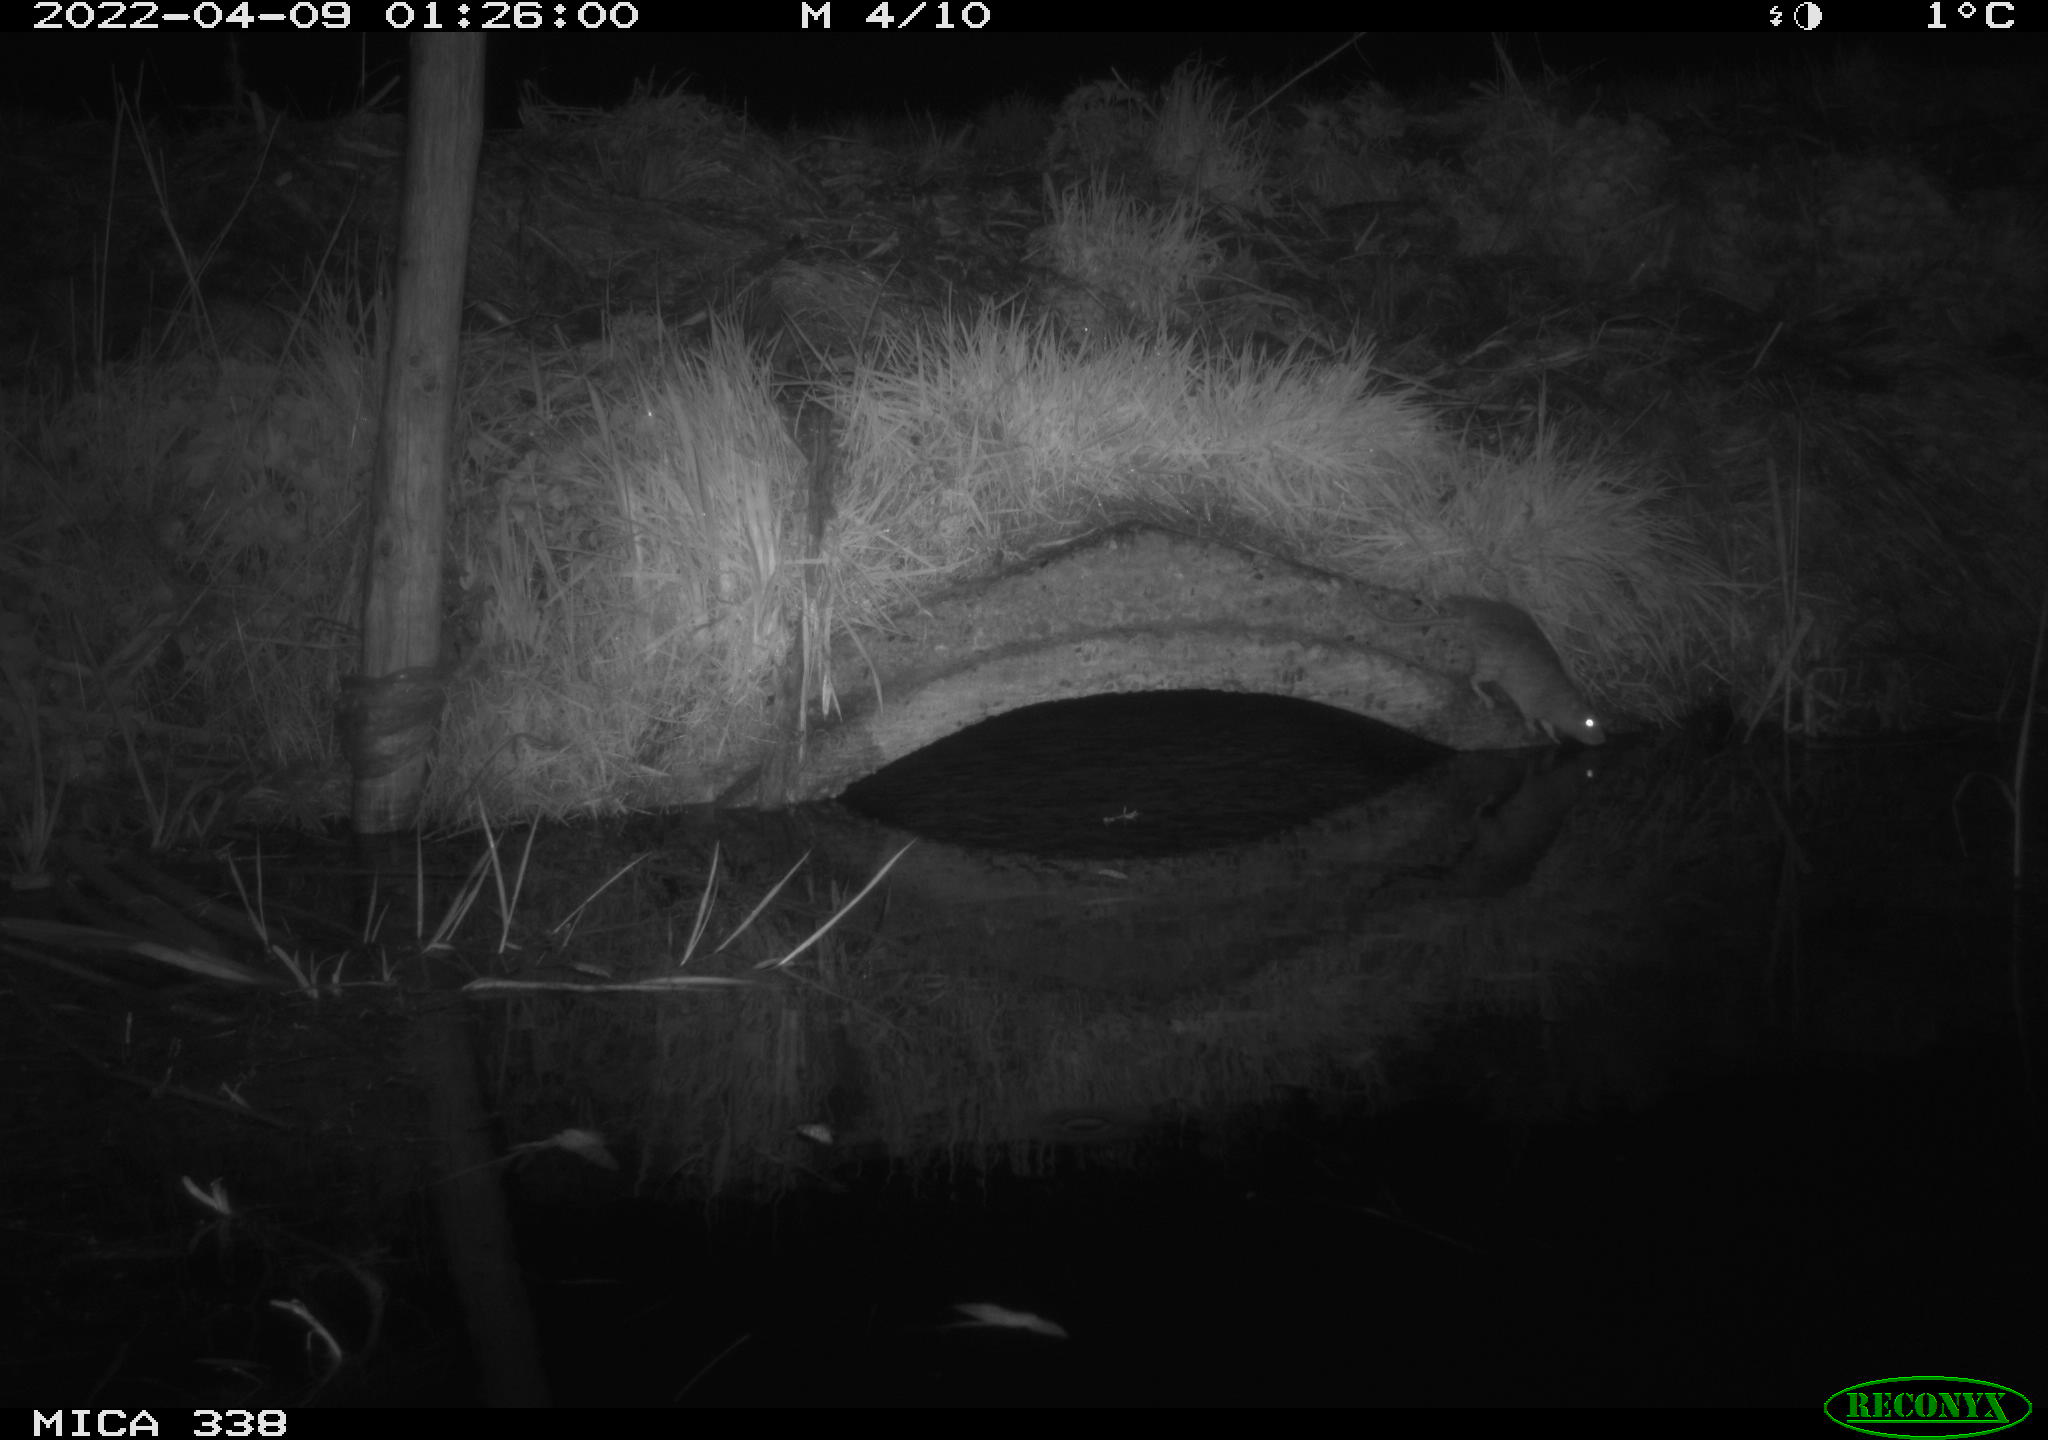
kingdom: Animalia
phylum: Chordata
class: Mammalia
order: Rodentia
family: Muridae
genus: Rattus
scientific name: Rattus norvegicus
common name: Brown rat
